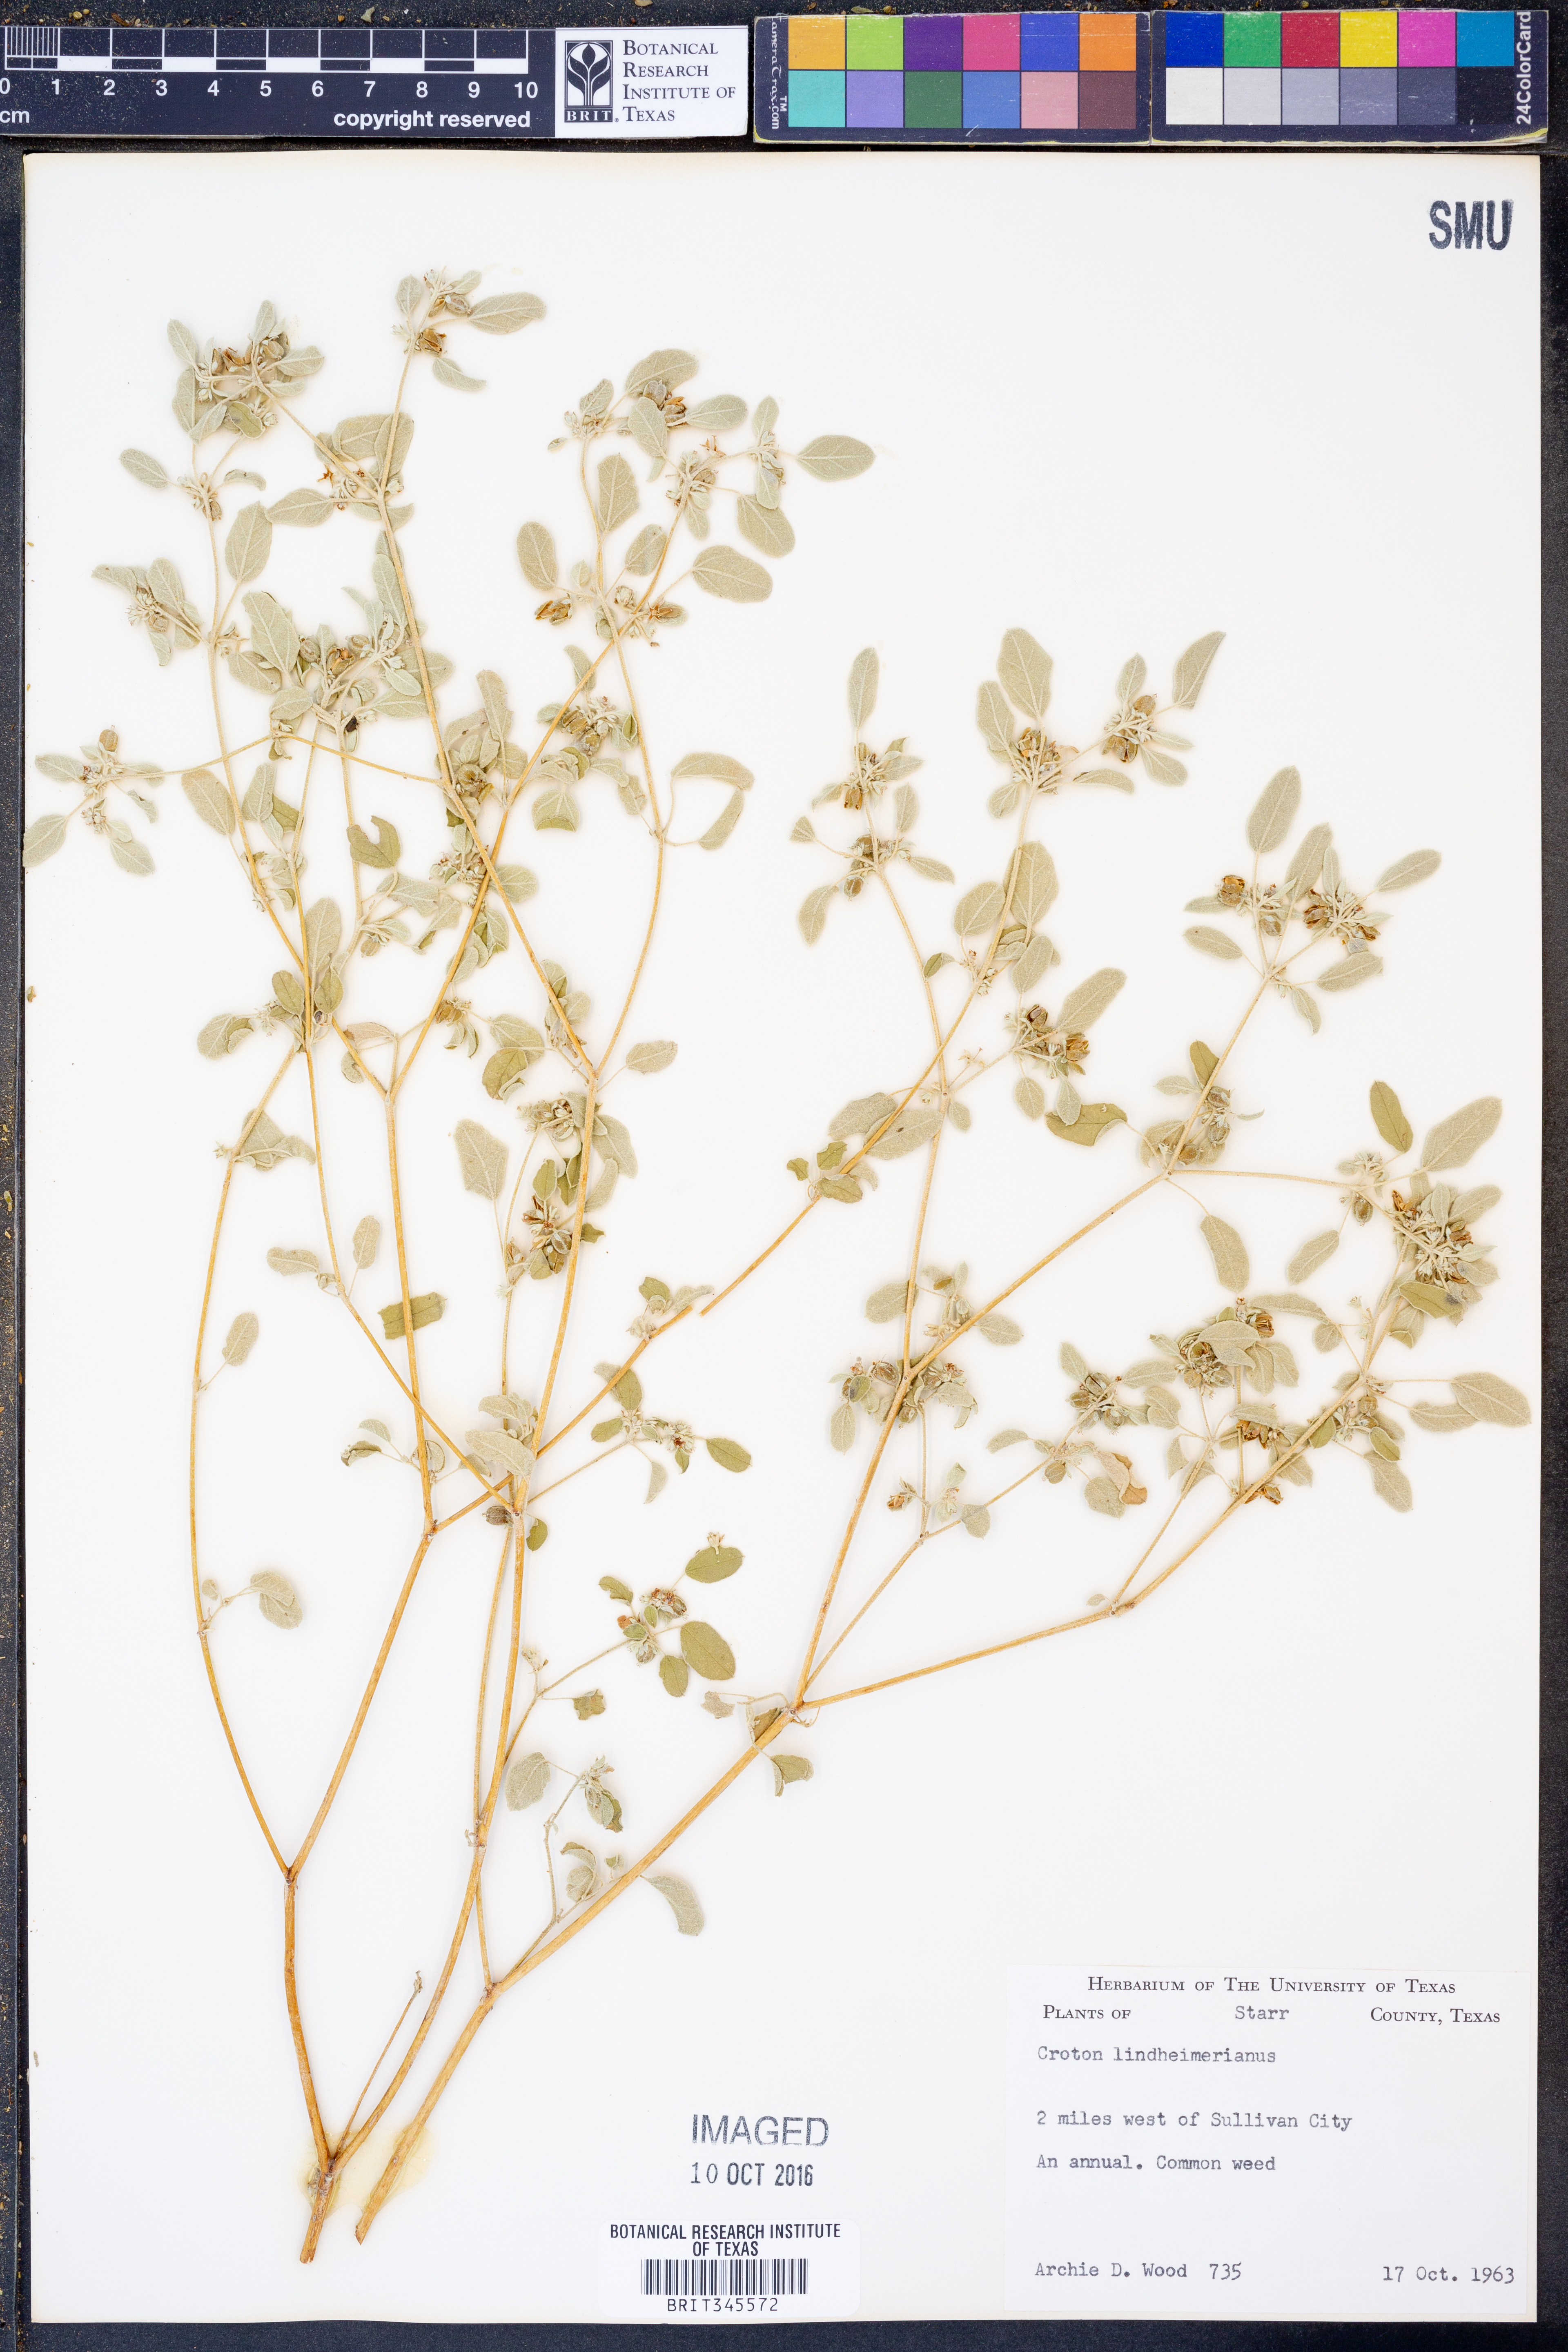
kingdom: Plantae
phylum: Tracheophyta
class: Magnoliopsida
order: Malpighiales
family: Euphorbiaceae
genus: Croton
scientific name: Croton lindheimerianus
